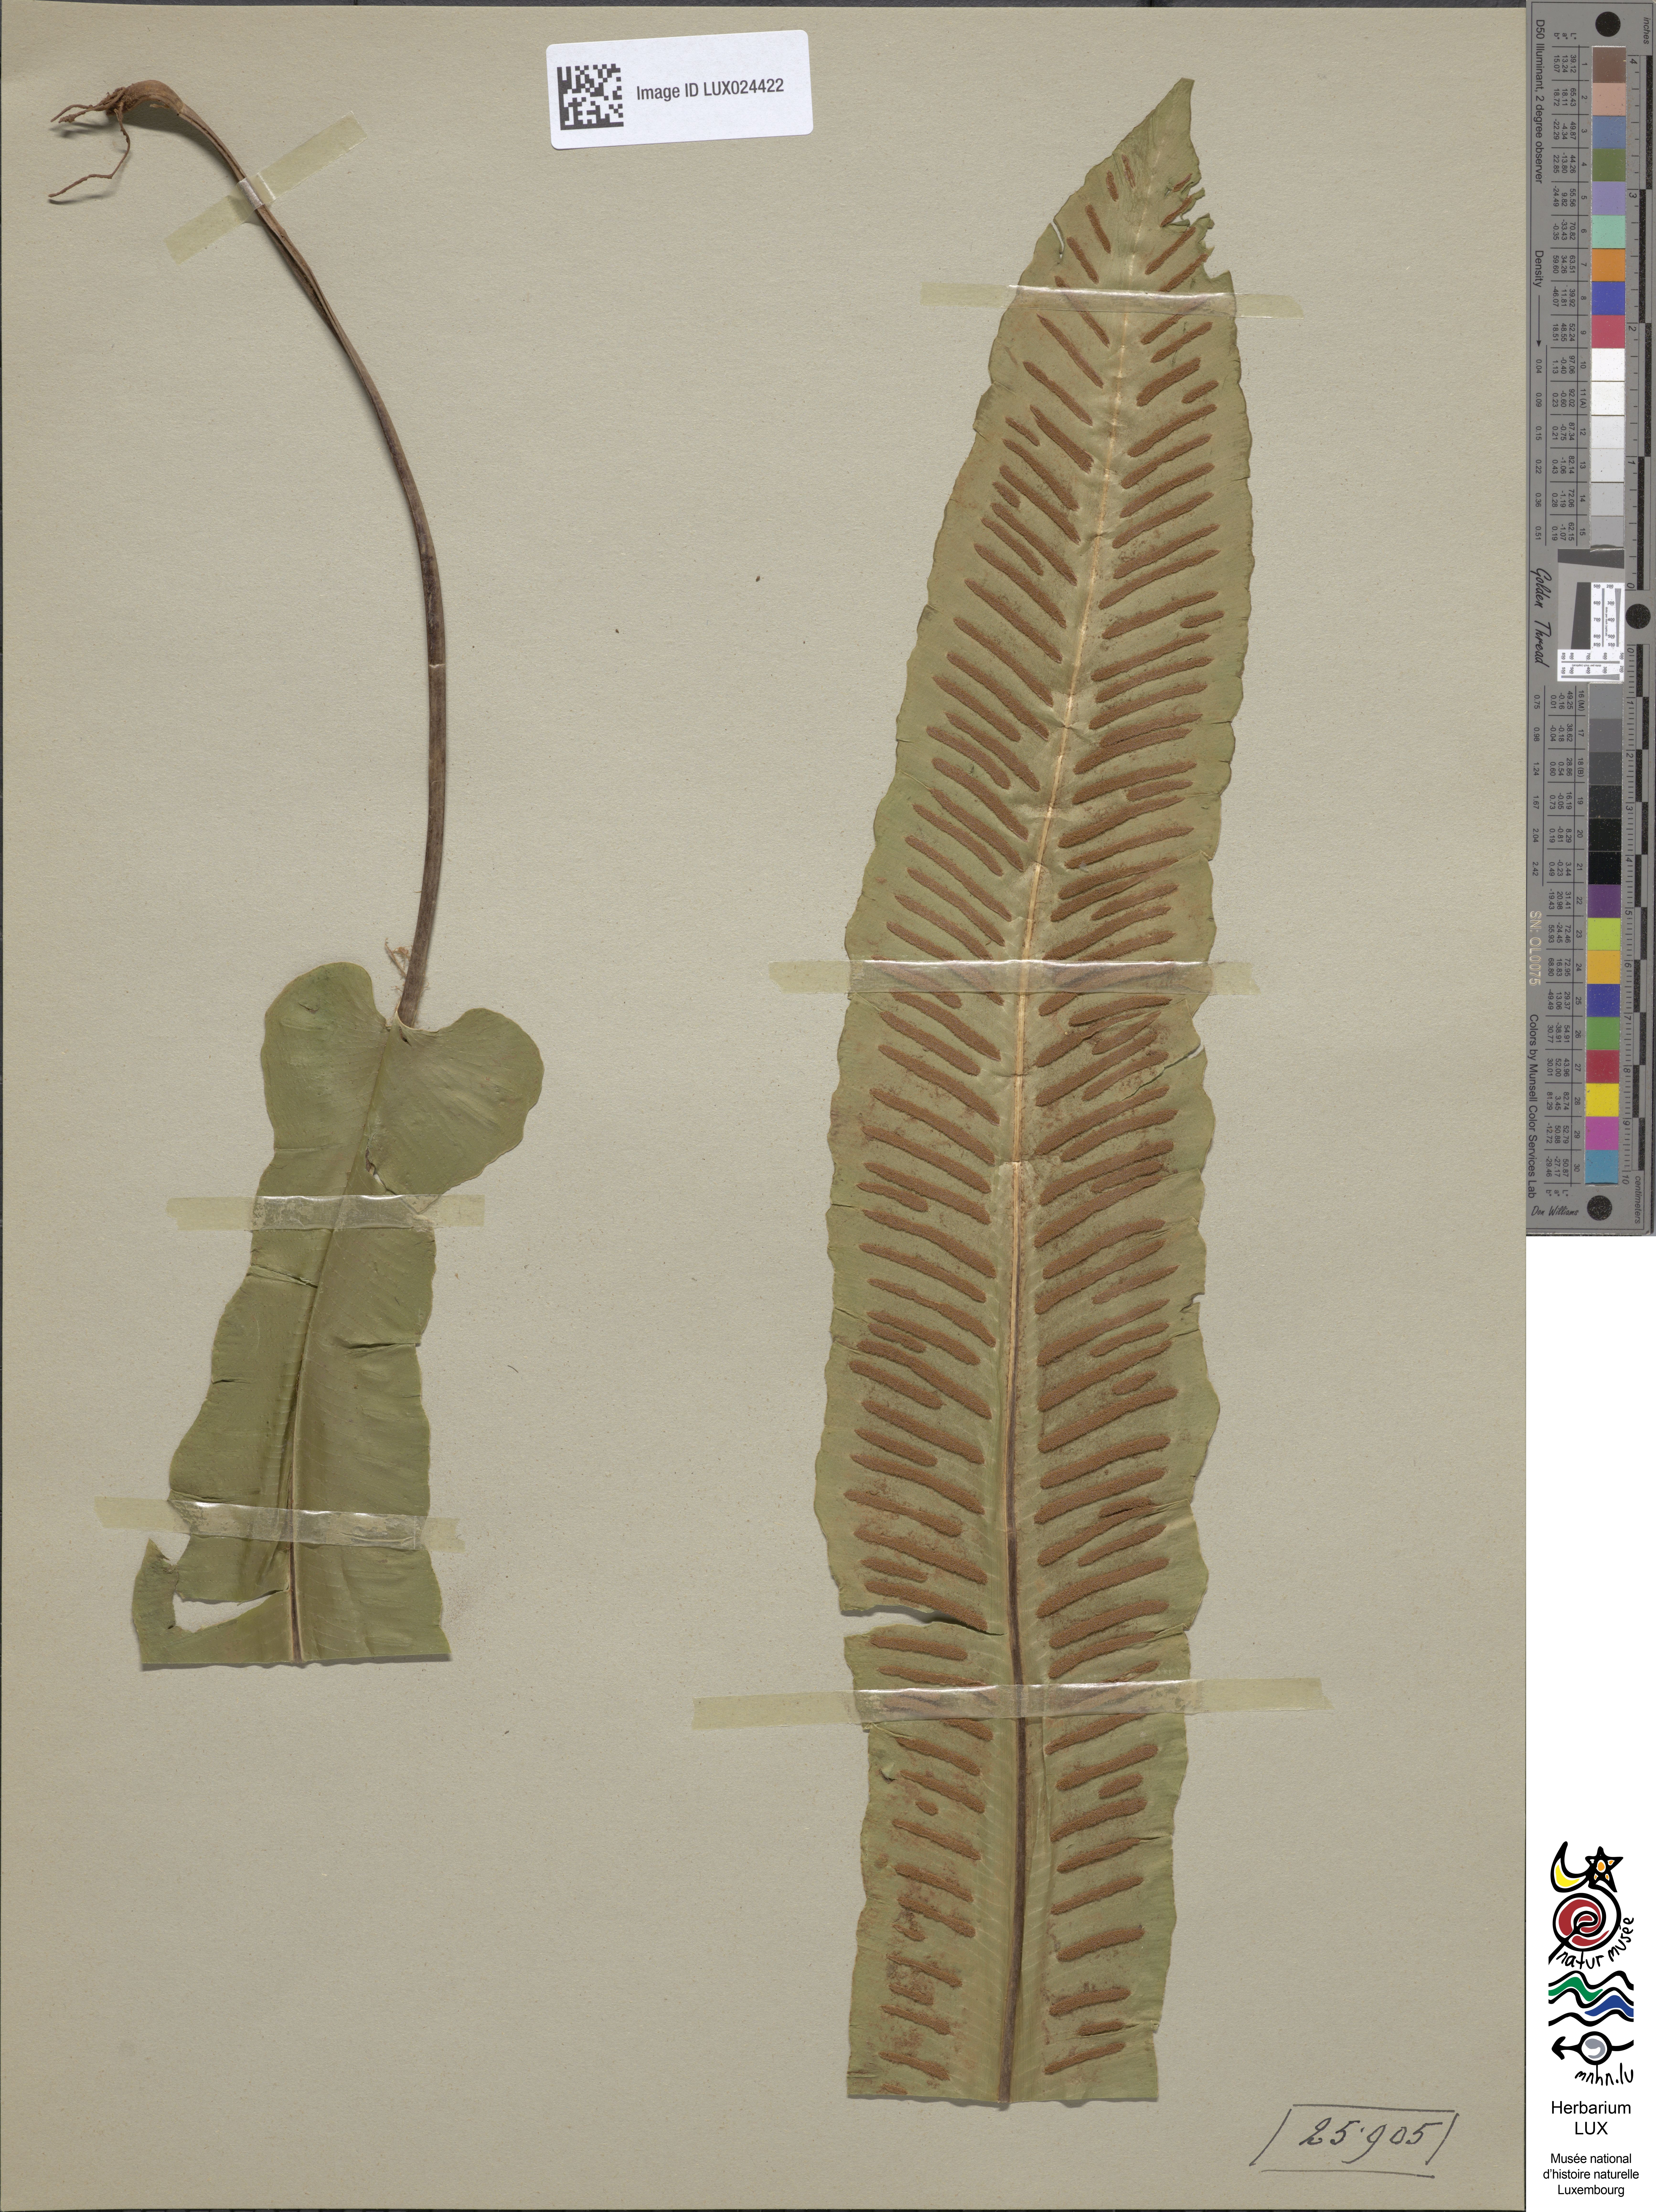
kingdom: Plantae
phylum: Tracheophyta
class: Polypodiopsida
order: Polypodiales
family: Aspleniaceae
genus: Asplenium
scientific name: Asplenium scolopendrium
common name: Hart's-tongue fern
